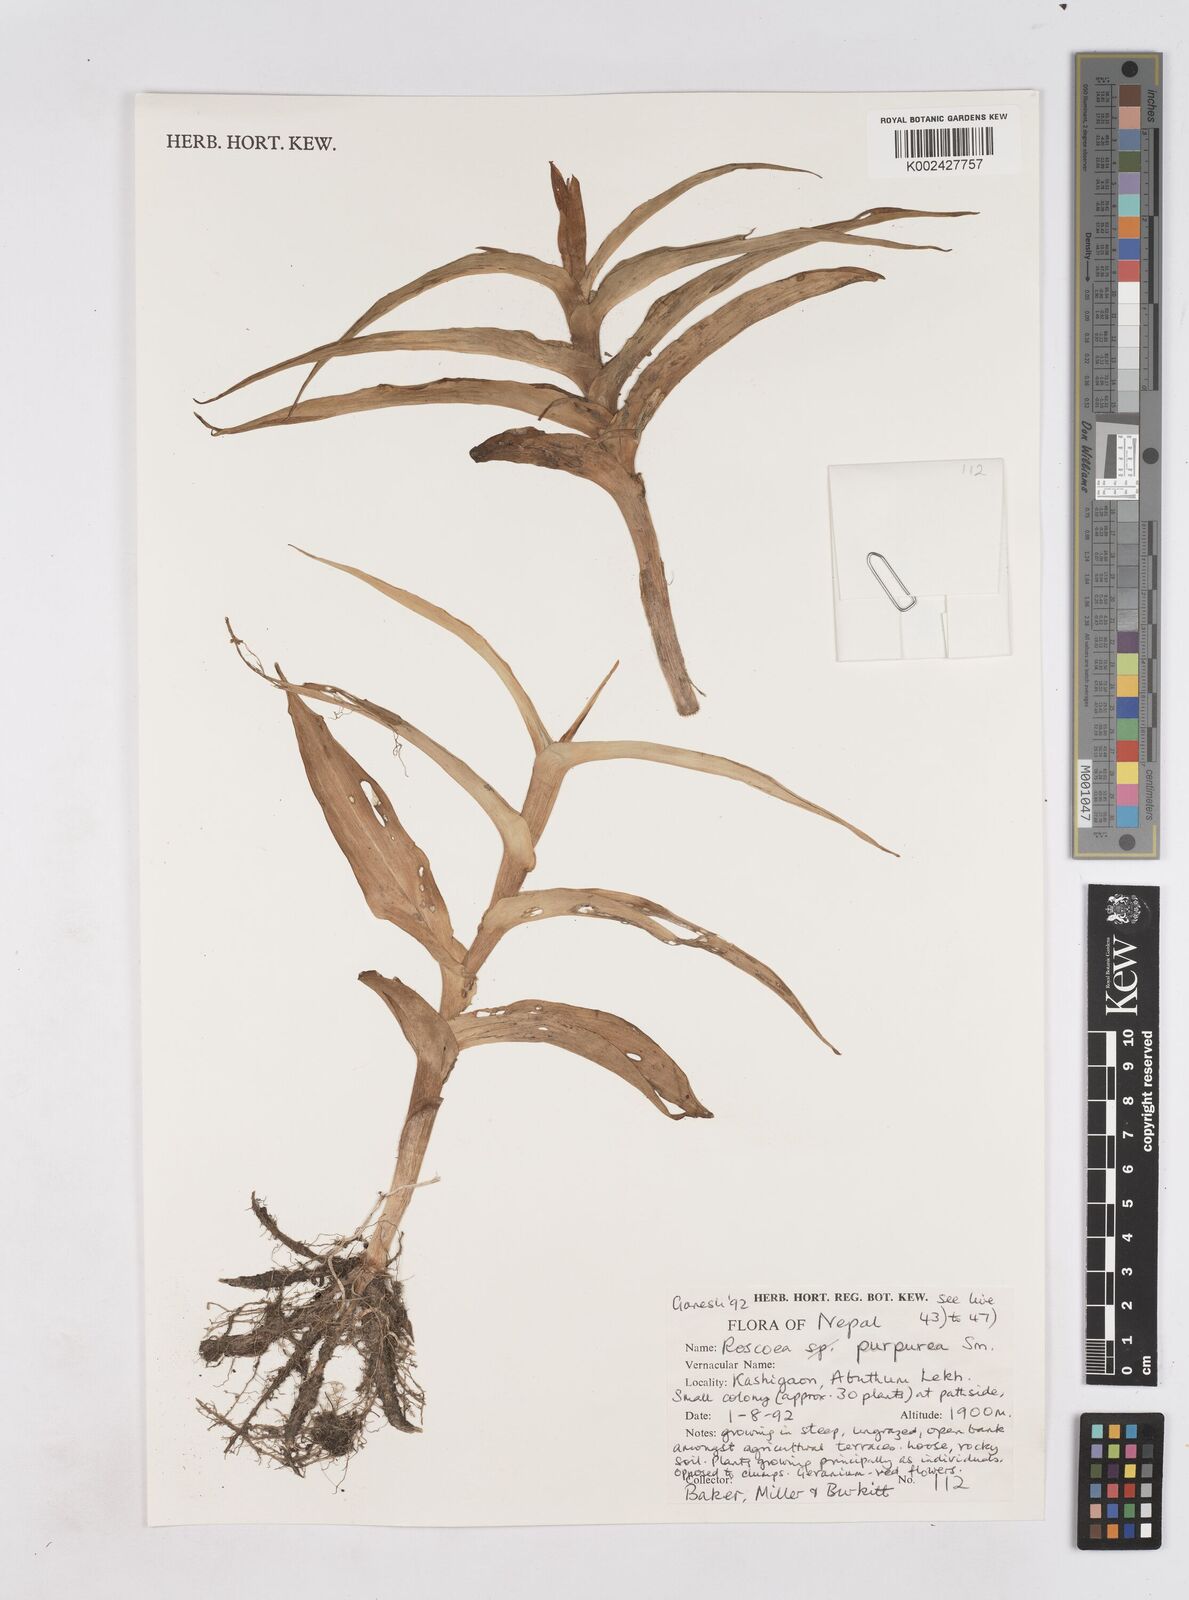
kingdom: Plantae
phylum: Tracheophyta
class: Liliopsida
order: Zingiberales
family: Zingiberaceae
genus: Roscoea
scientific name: Roscoea purpurea
